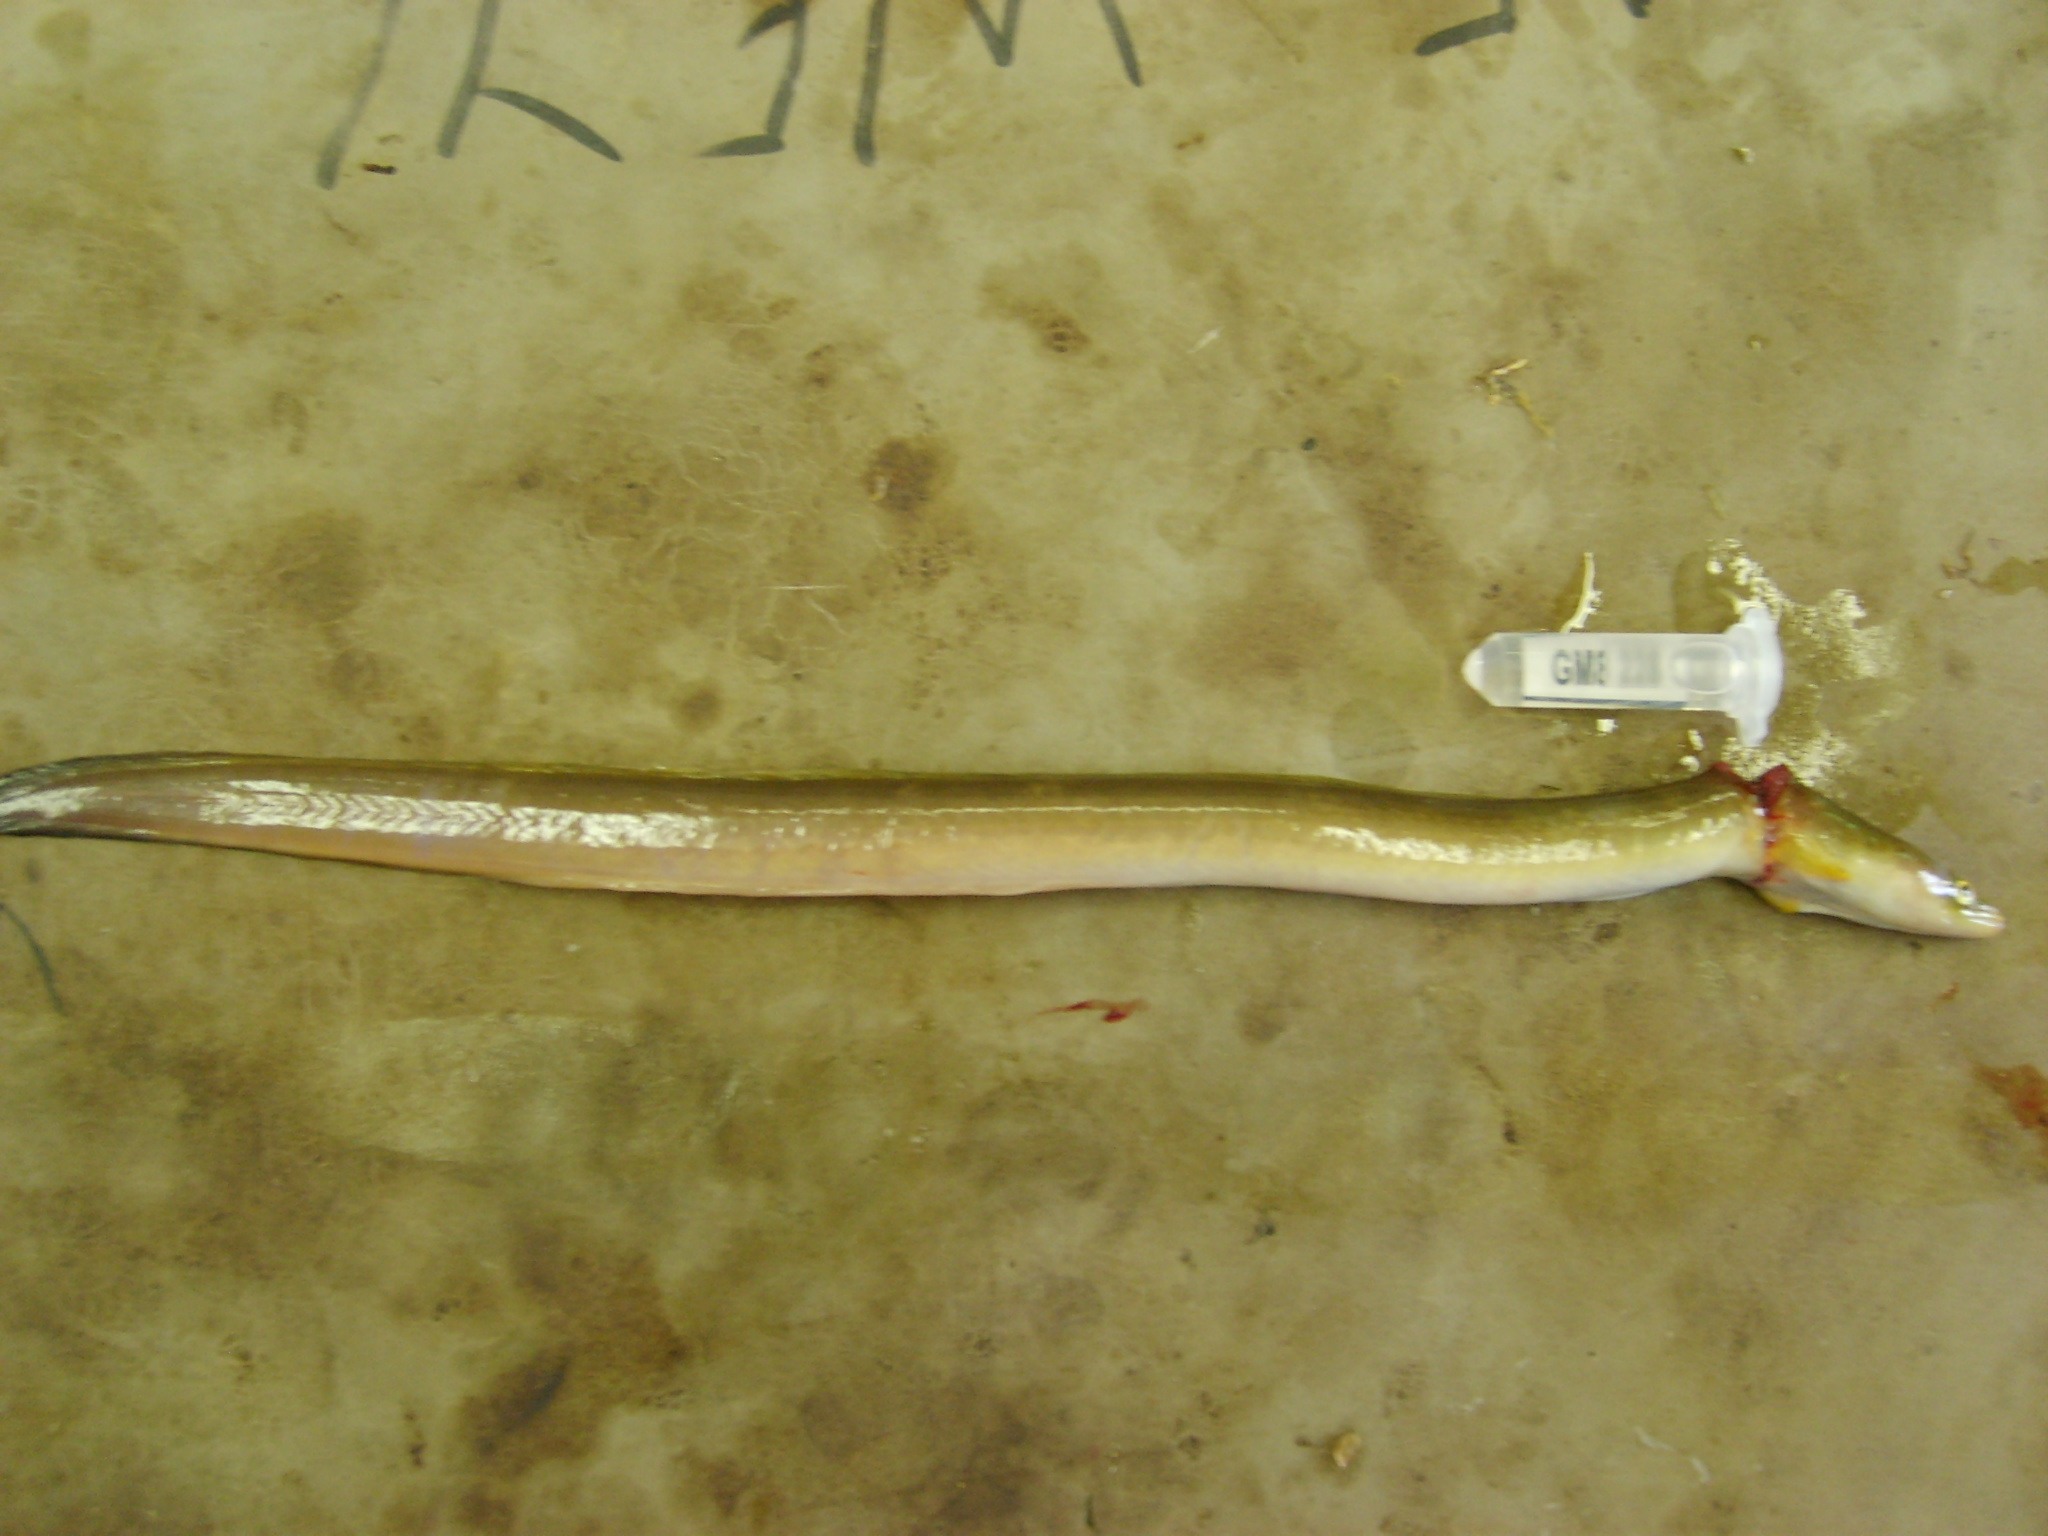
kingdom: Animalia
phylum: Chordata
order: Anguilliformes
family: Anguillidae
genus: Anguilla
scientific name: Anguilla mossambica
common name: African longfin eel
